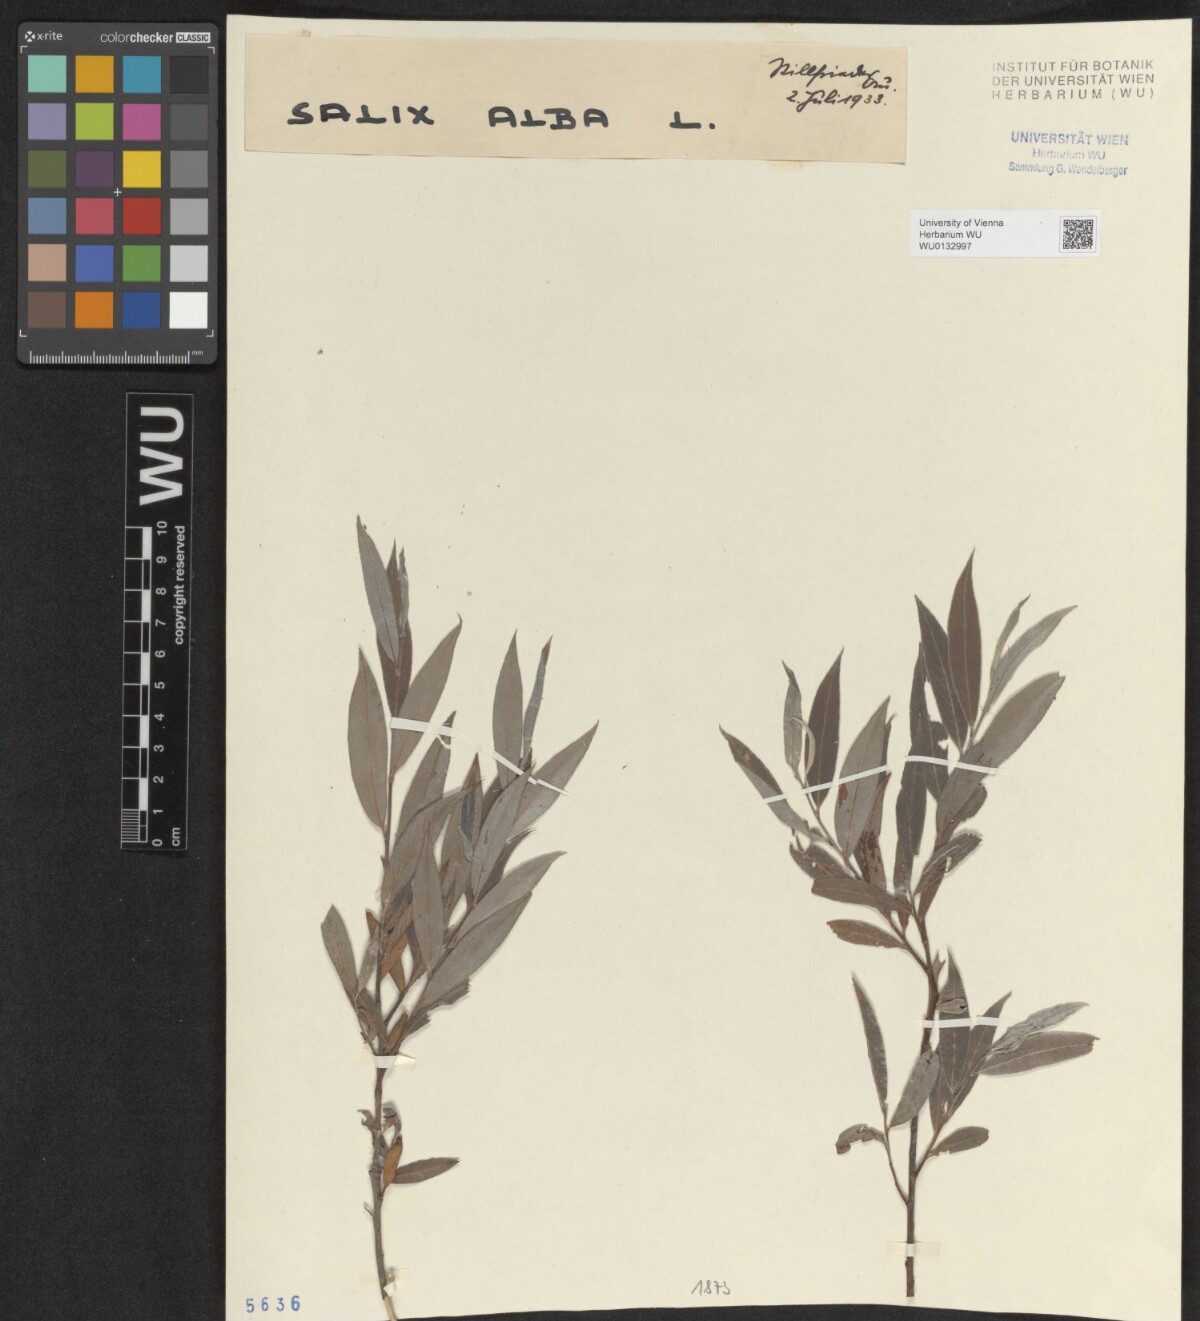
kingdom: Plantae
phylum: Tracheophyta
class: Magnoliopsida
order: Malpighiales
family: Salicaceae
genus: Salix
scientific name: Salix alba
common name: White willow
